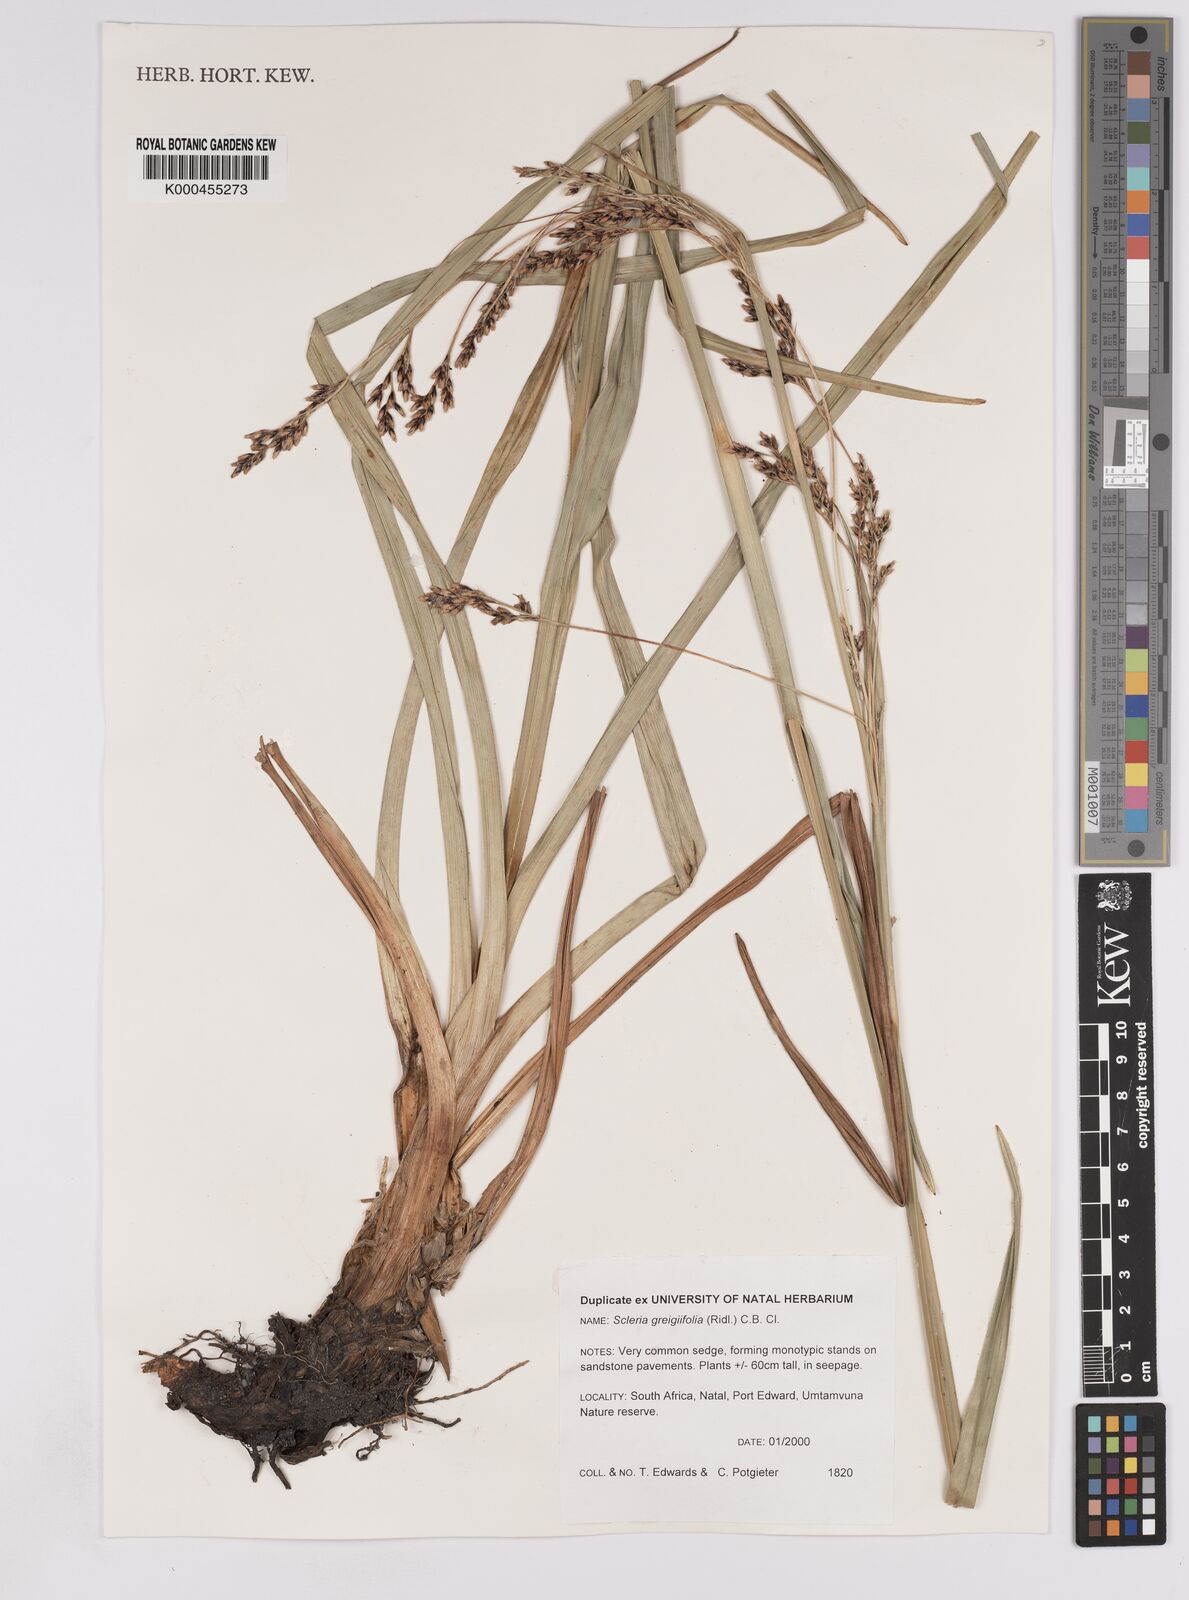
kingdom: Plantae
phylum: Tracheophyta
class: Liliopsida
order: Poales
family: Cyperaceae
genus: Scleria
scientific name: Scleria greigiifolia
